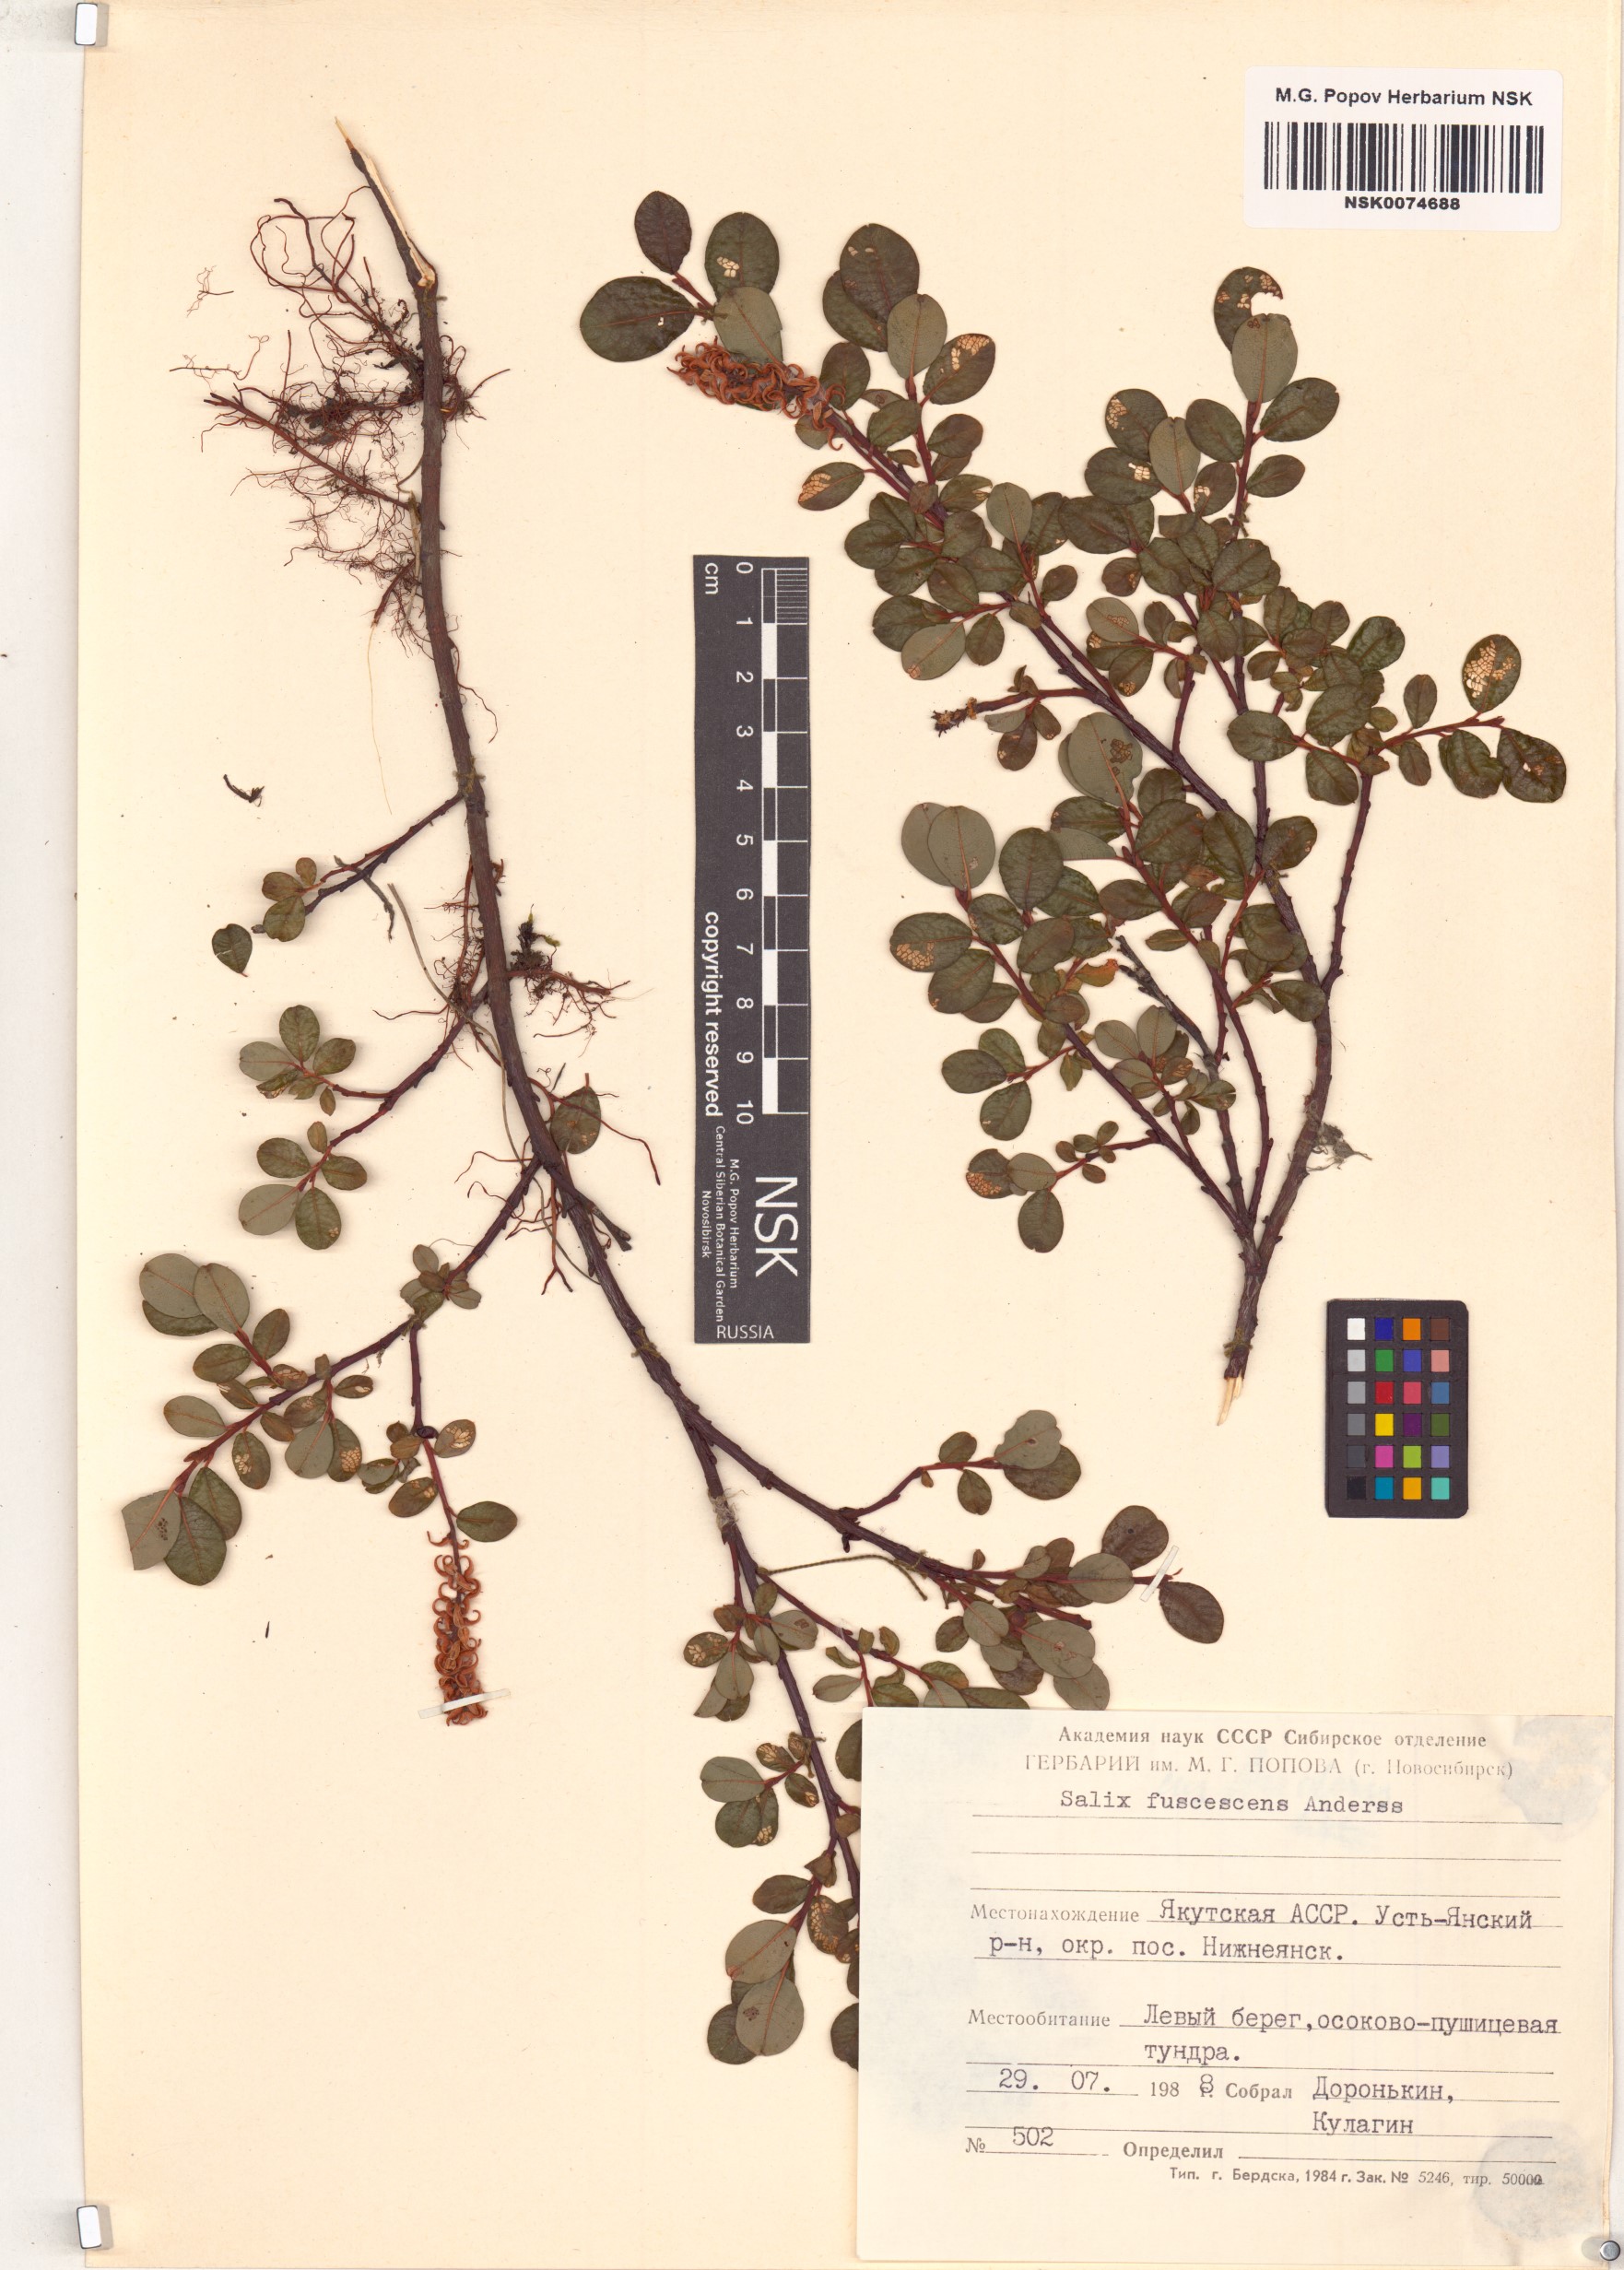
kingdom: Plantae
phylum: Tracheophyta
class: Magnoliopsida
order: Malpighiales
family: Salicaceae
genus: Salix
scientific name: Salix fuscescens
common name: Brownish willow
